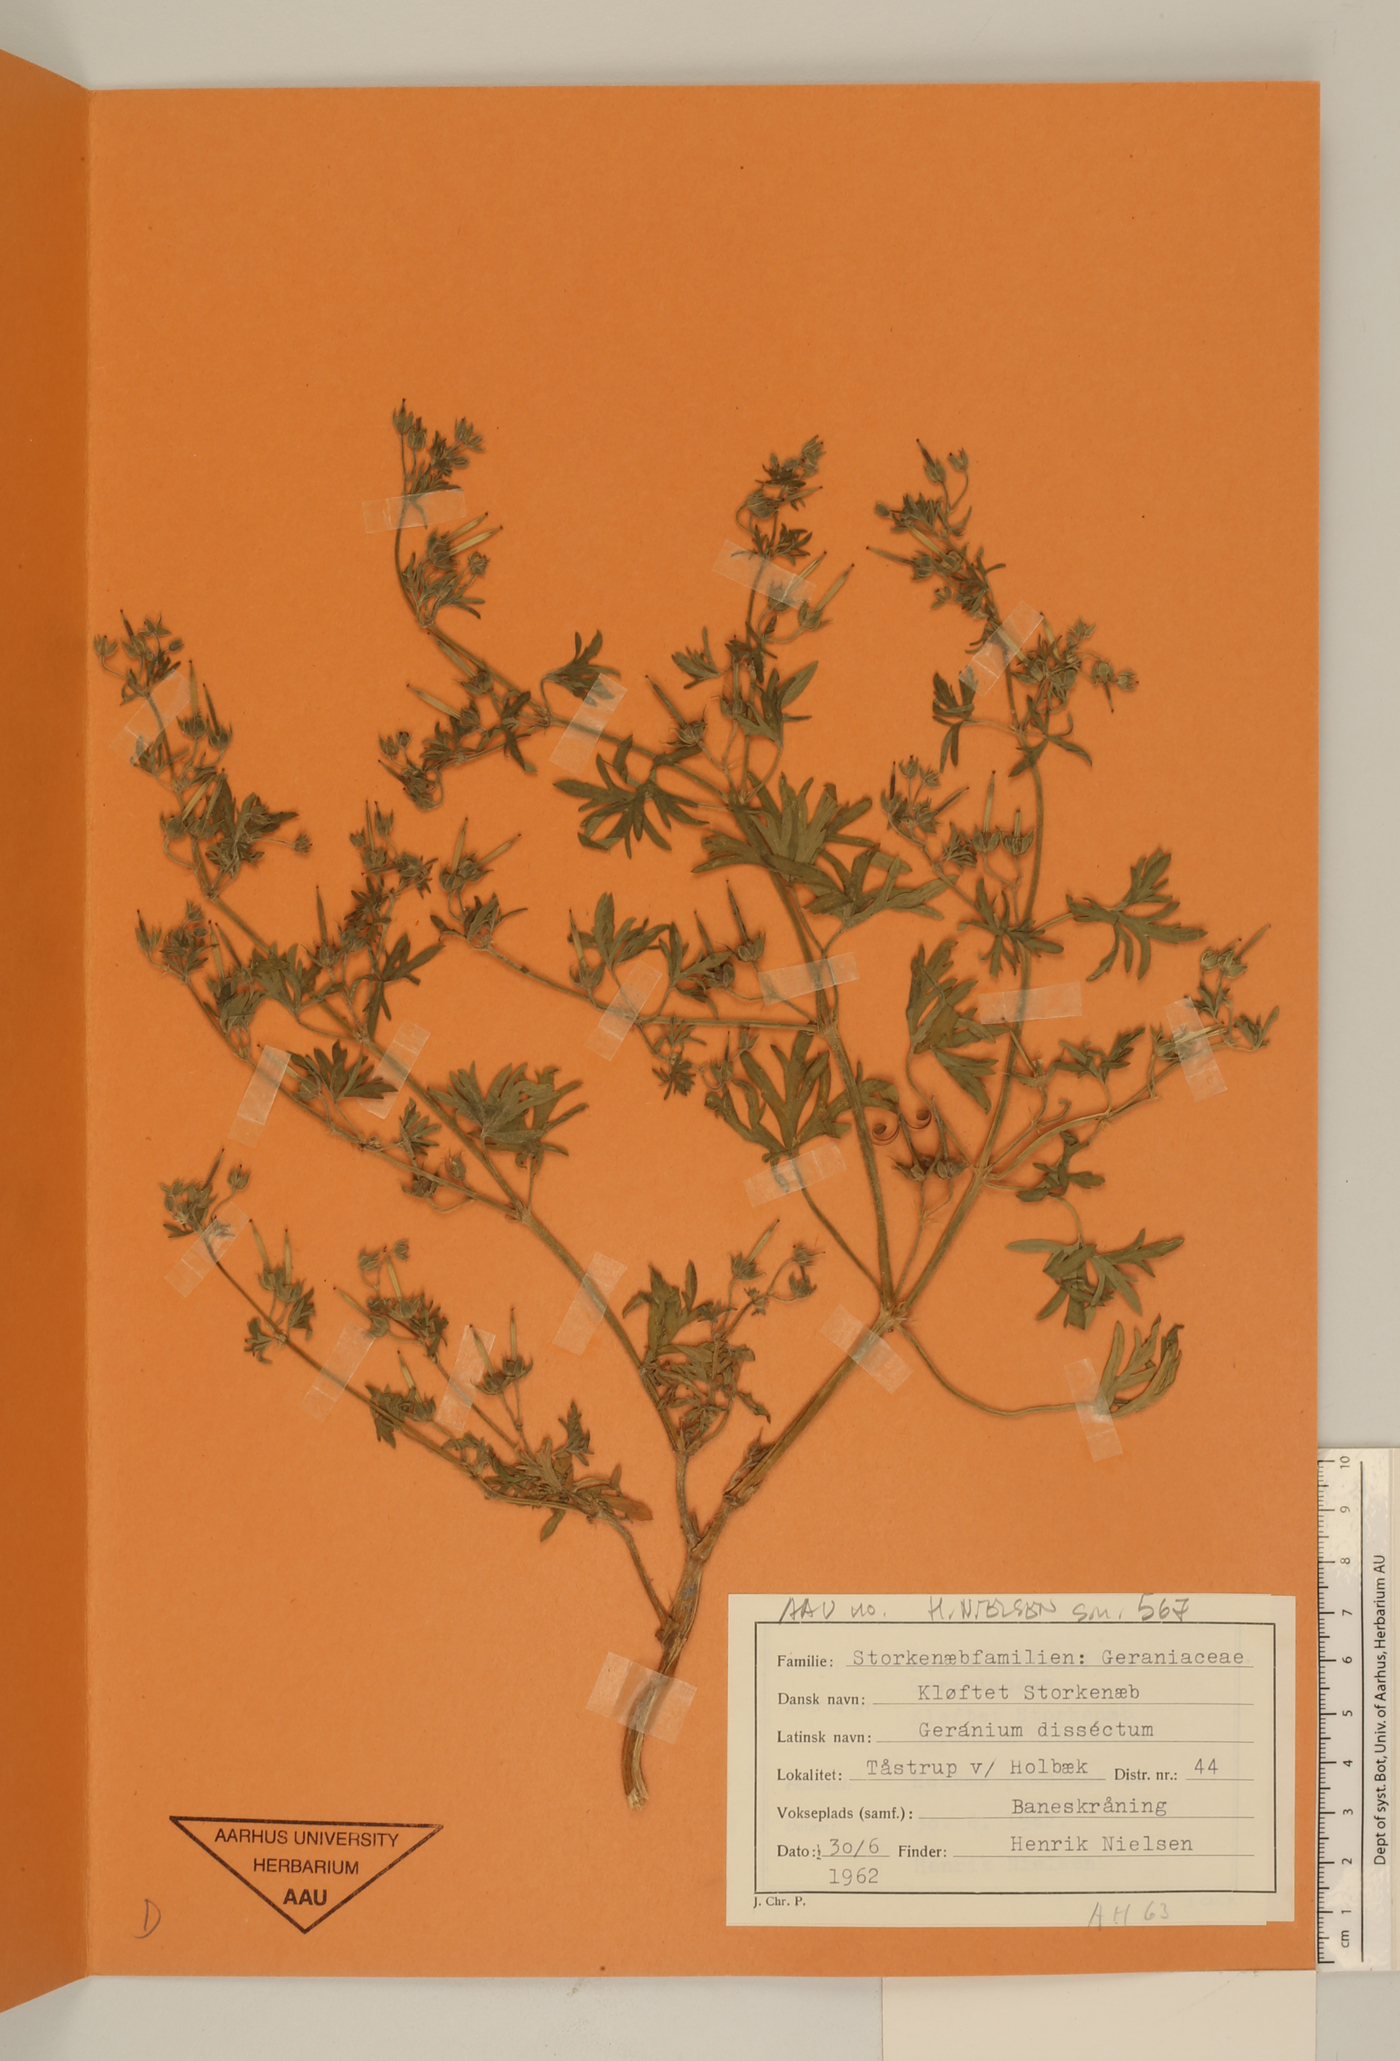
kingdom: Plantae
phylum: Tracheophyta
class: Magnoliopsida
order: Geraniales
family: Geraniaceae
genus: Geranium
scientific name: Geranium dissectum
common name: Cut-leaved crane's-bill
